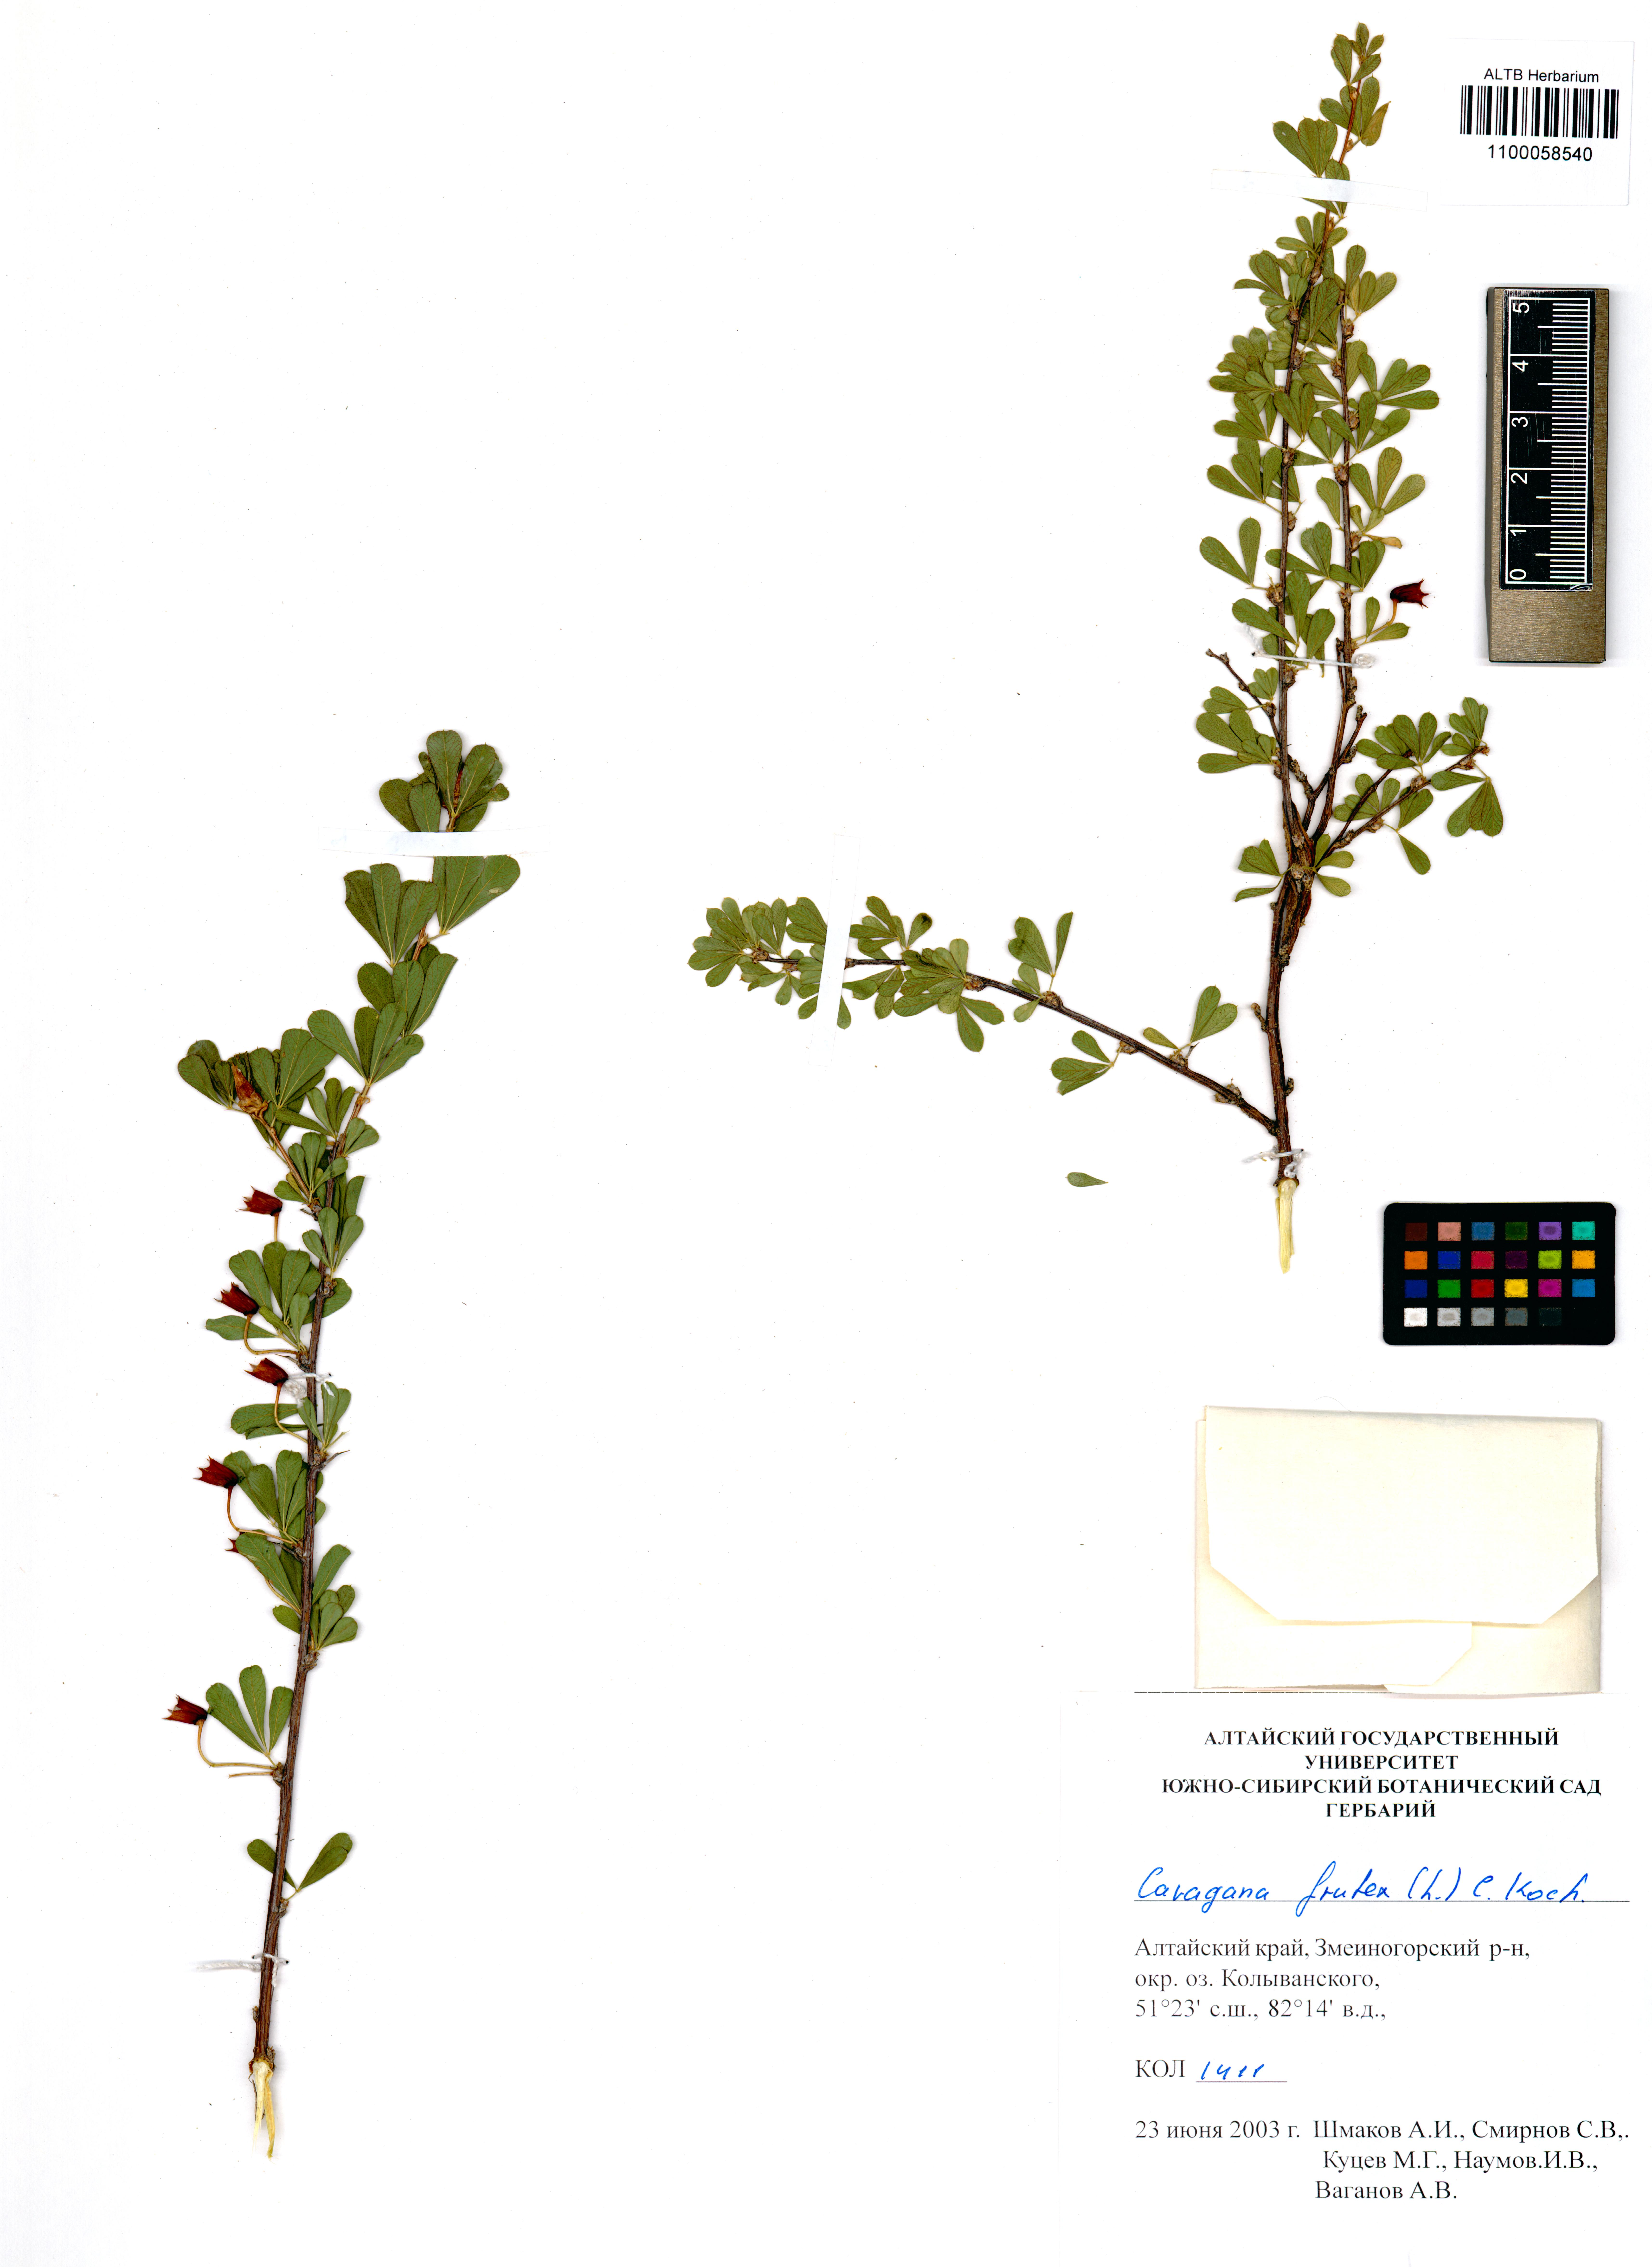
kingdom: Plantae
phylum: Tracheophyta
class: Magnoliopsida
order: Fabales
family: Fabaceae
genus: Caragana
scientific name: Caragana frutex
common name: Russian peashrub
